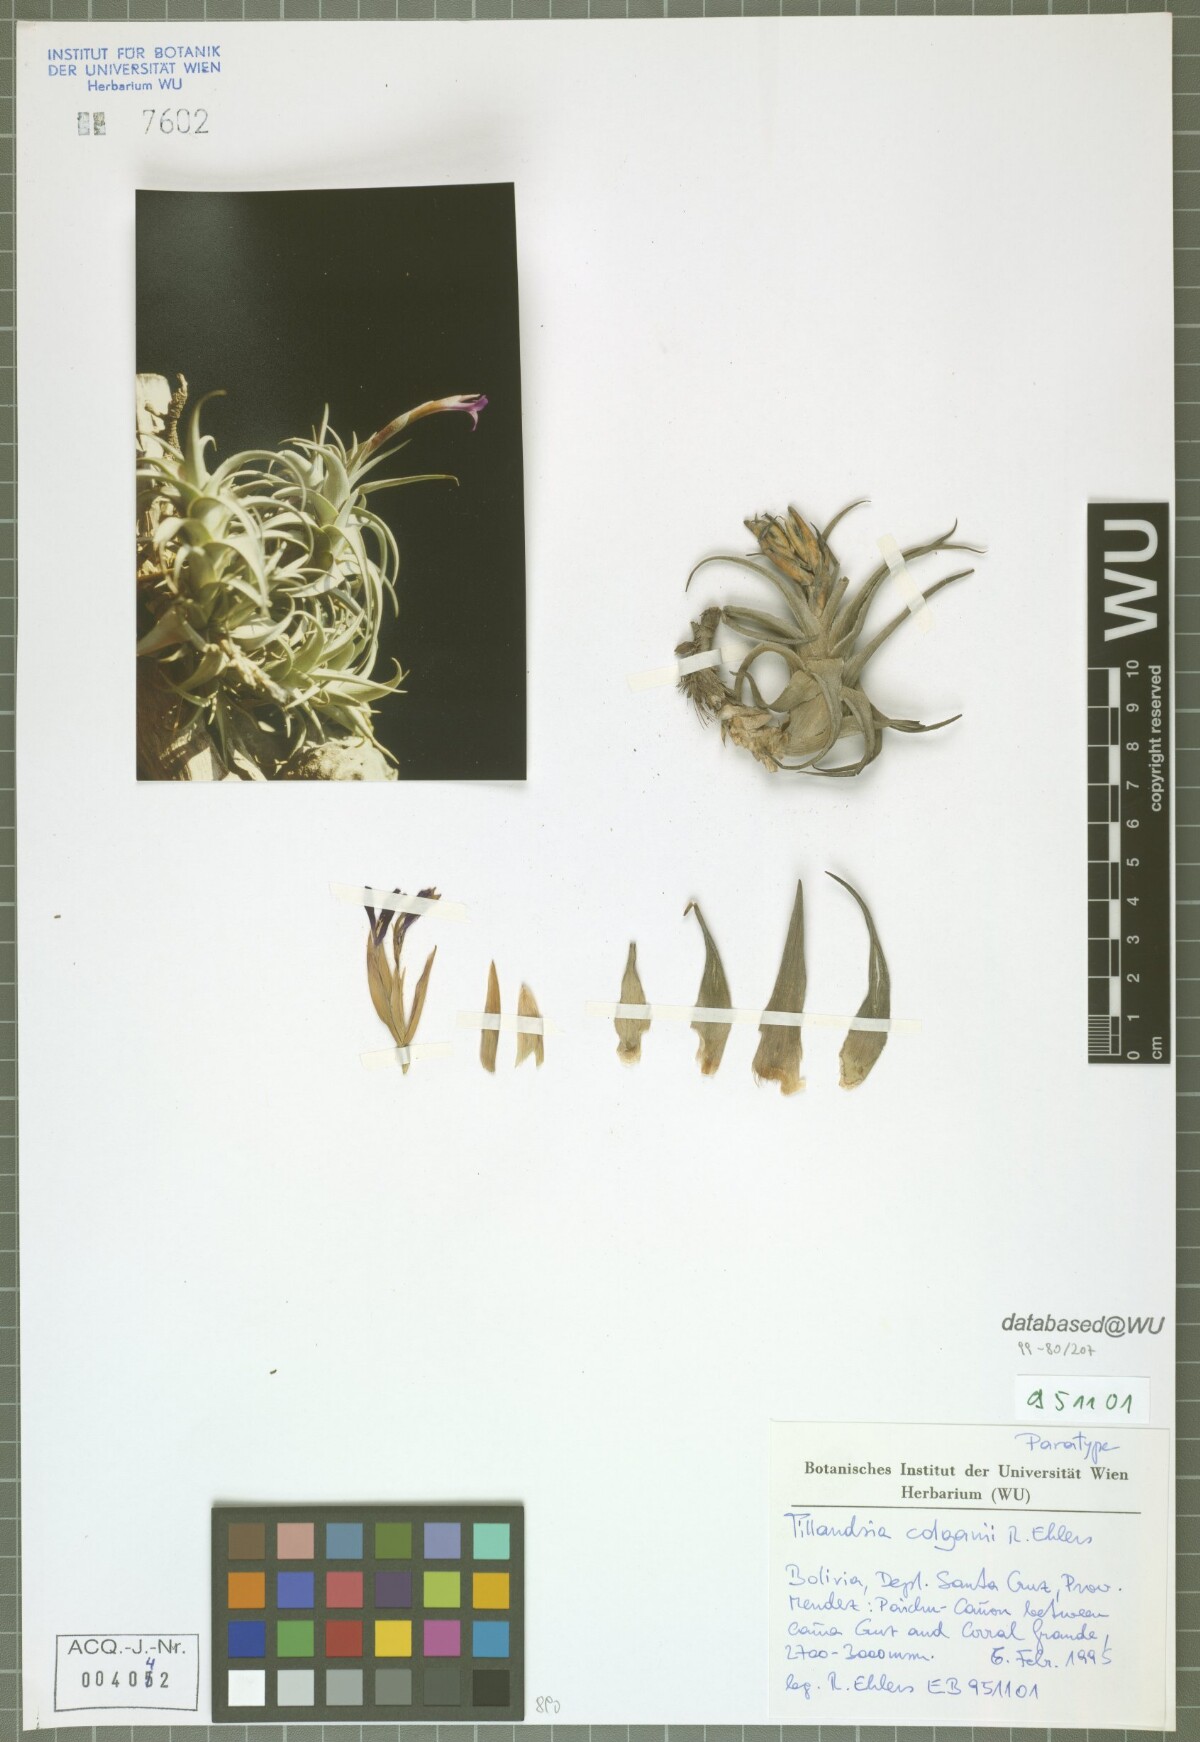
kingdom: Plantae
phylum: Tracheophyta
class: Liliopsida
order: Poales
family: Bromeliaceae
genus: Tillandsia
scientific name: Tillandsia colganii
